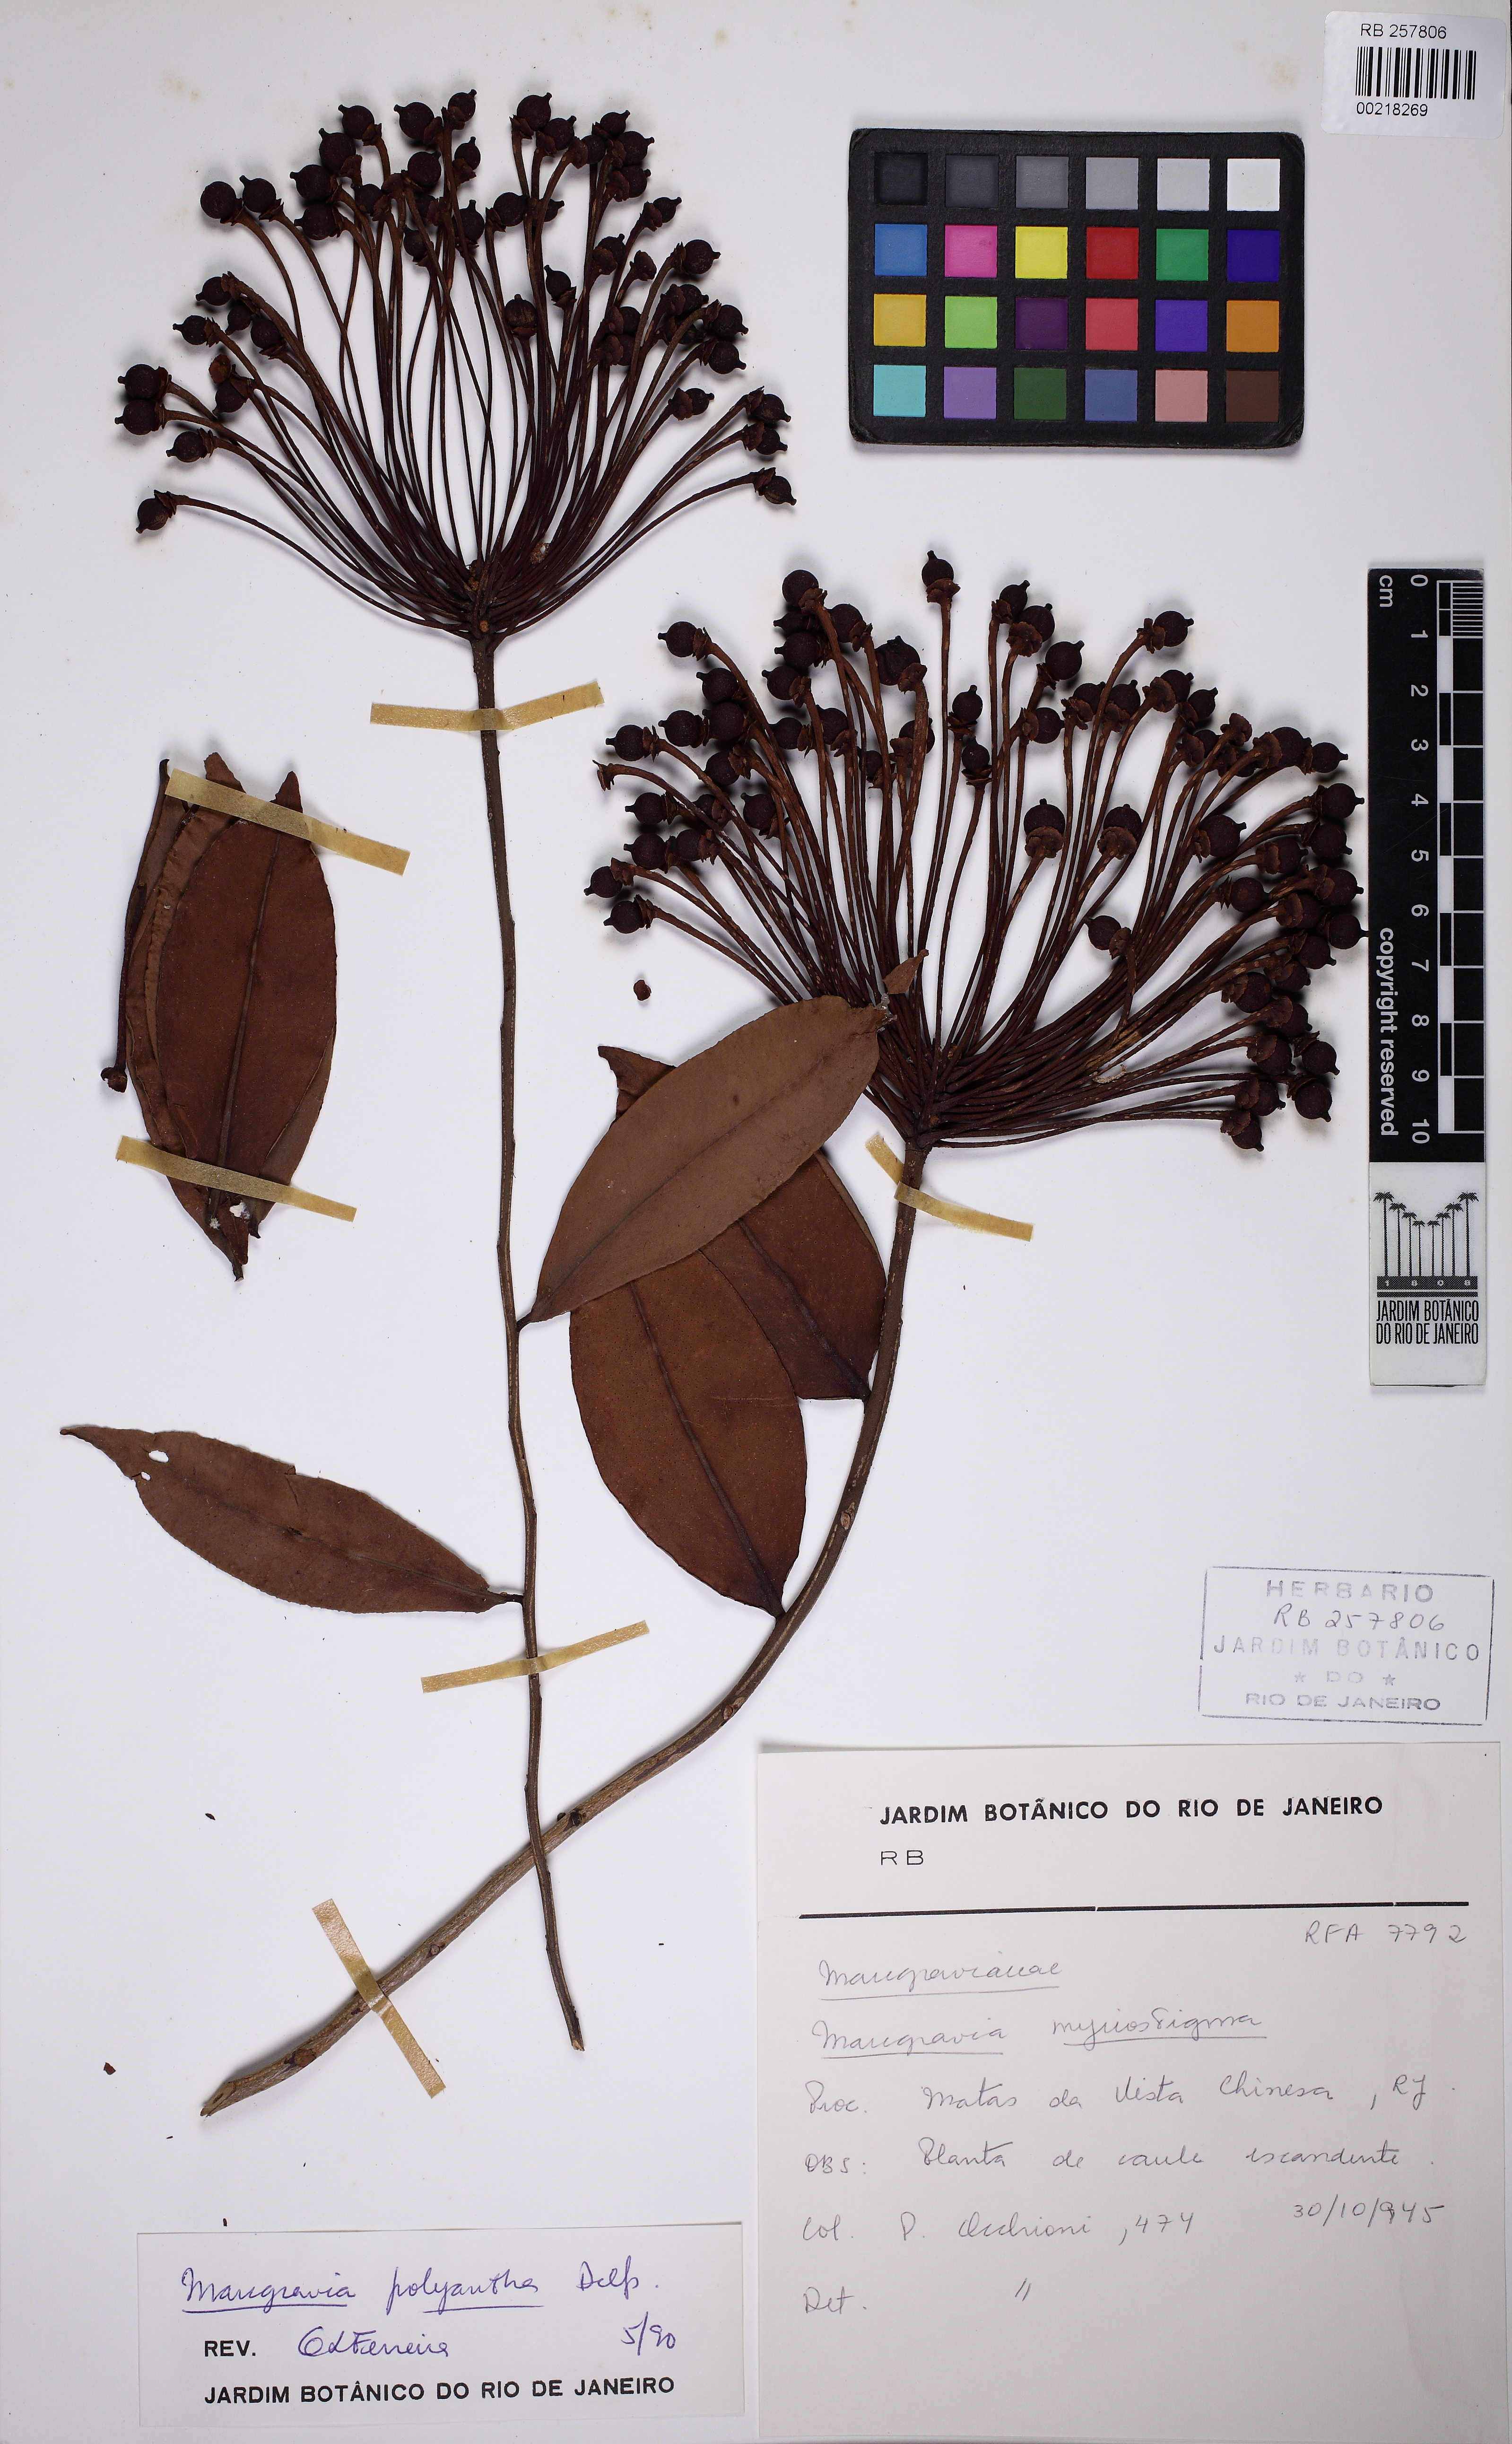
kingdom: Plantae
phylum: Tracheophyta
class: Magnoliopsida
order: Ericales
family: Marcgraviaceae
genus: Marcgravia
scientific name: Marcgravia polyantha
